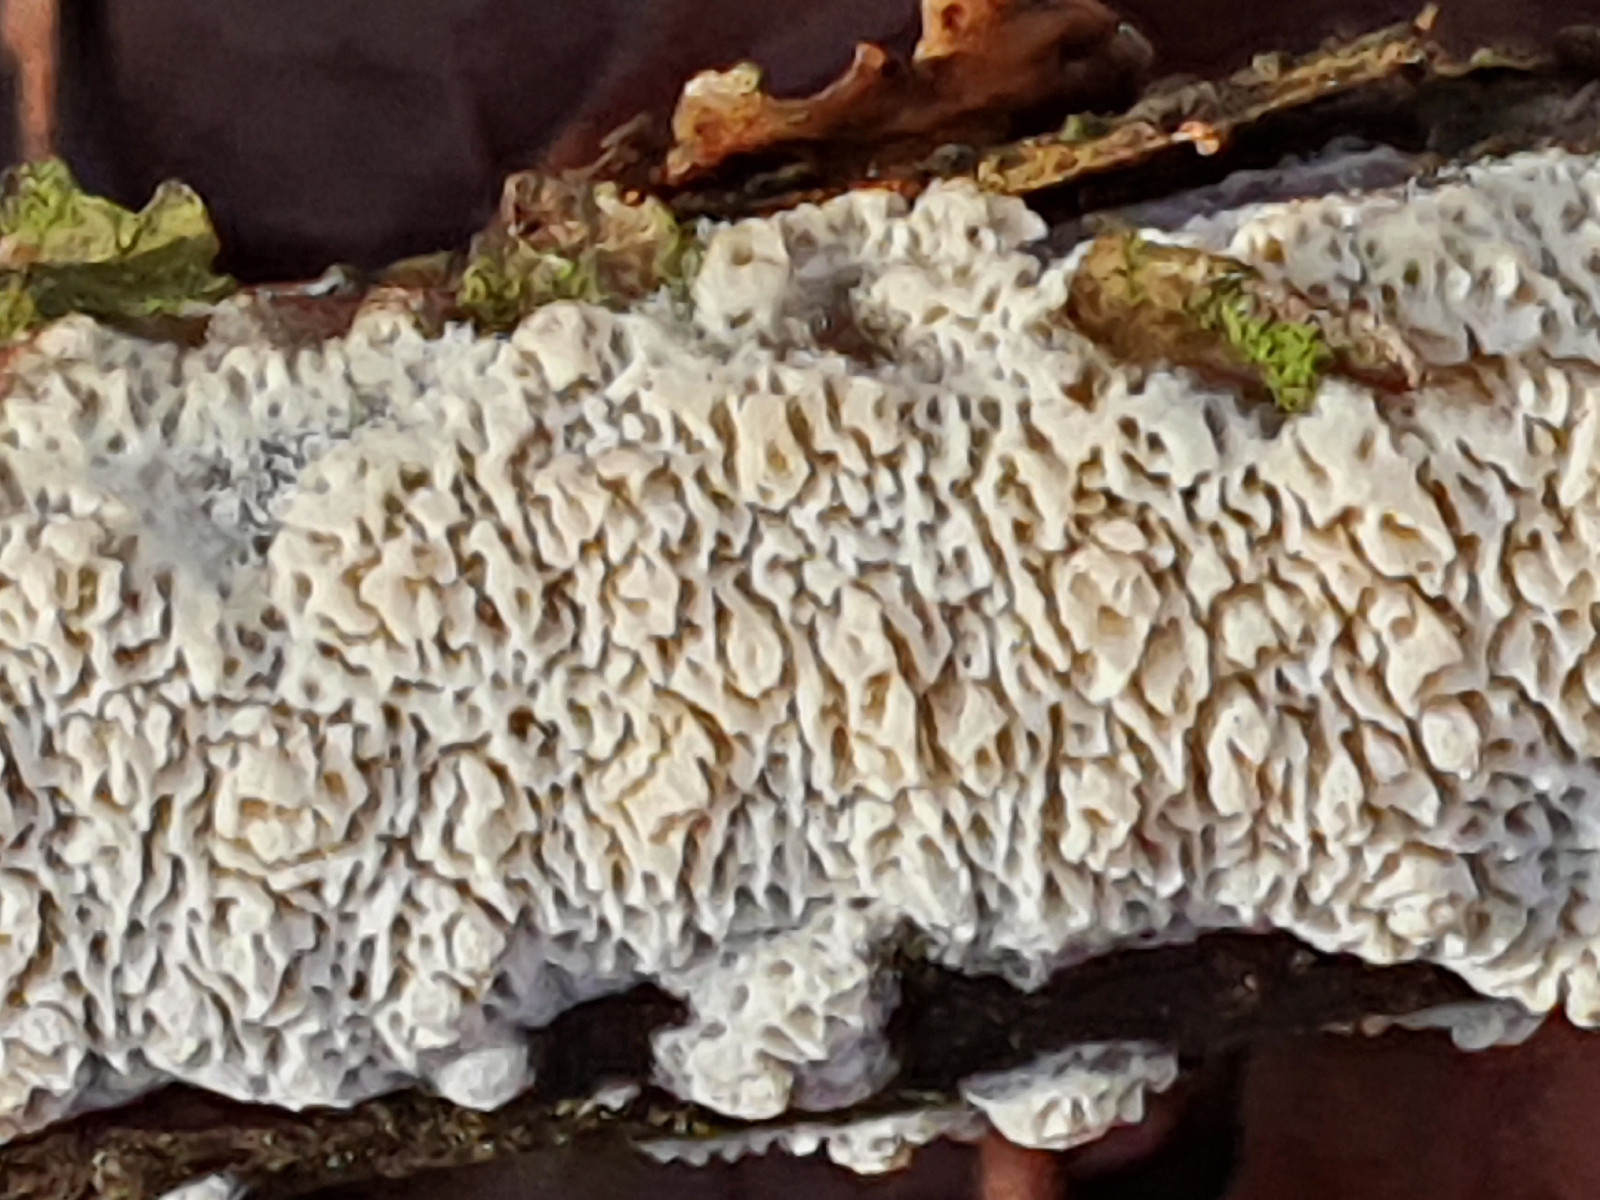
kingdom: Fungi
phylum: Basidiomycota
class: Agaricomycetes
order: Hymenochaetales
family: Schizoporaceae
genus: Xylodon
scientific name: Xylodon subtropicus
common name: labyrint-tandsvamp
